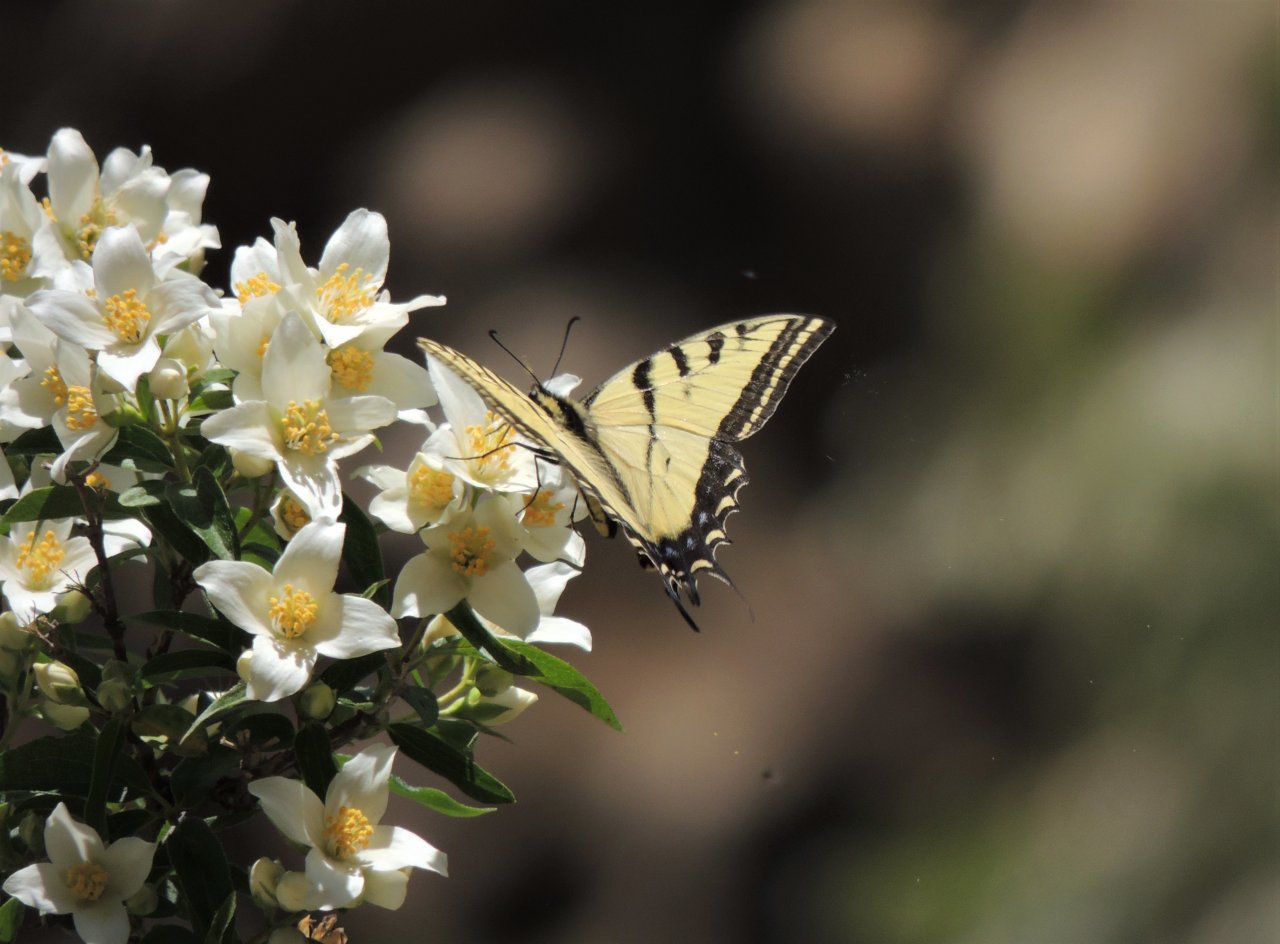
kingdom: Animalia
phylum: Arthropoda
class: Insecta
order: Lepidoptera
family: Papilionidae
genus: Papilio
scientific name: Papilio multicaudata
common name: Two-tailed Swallowtail
